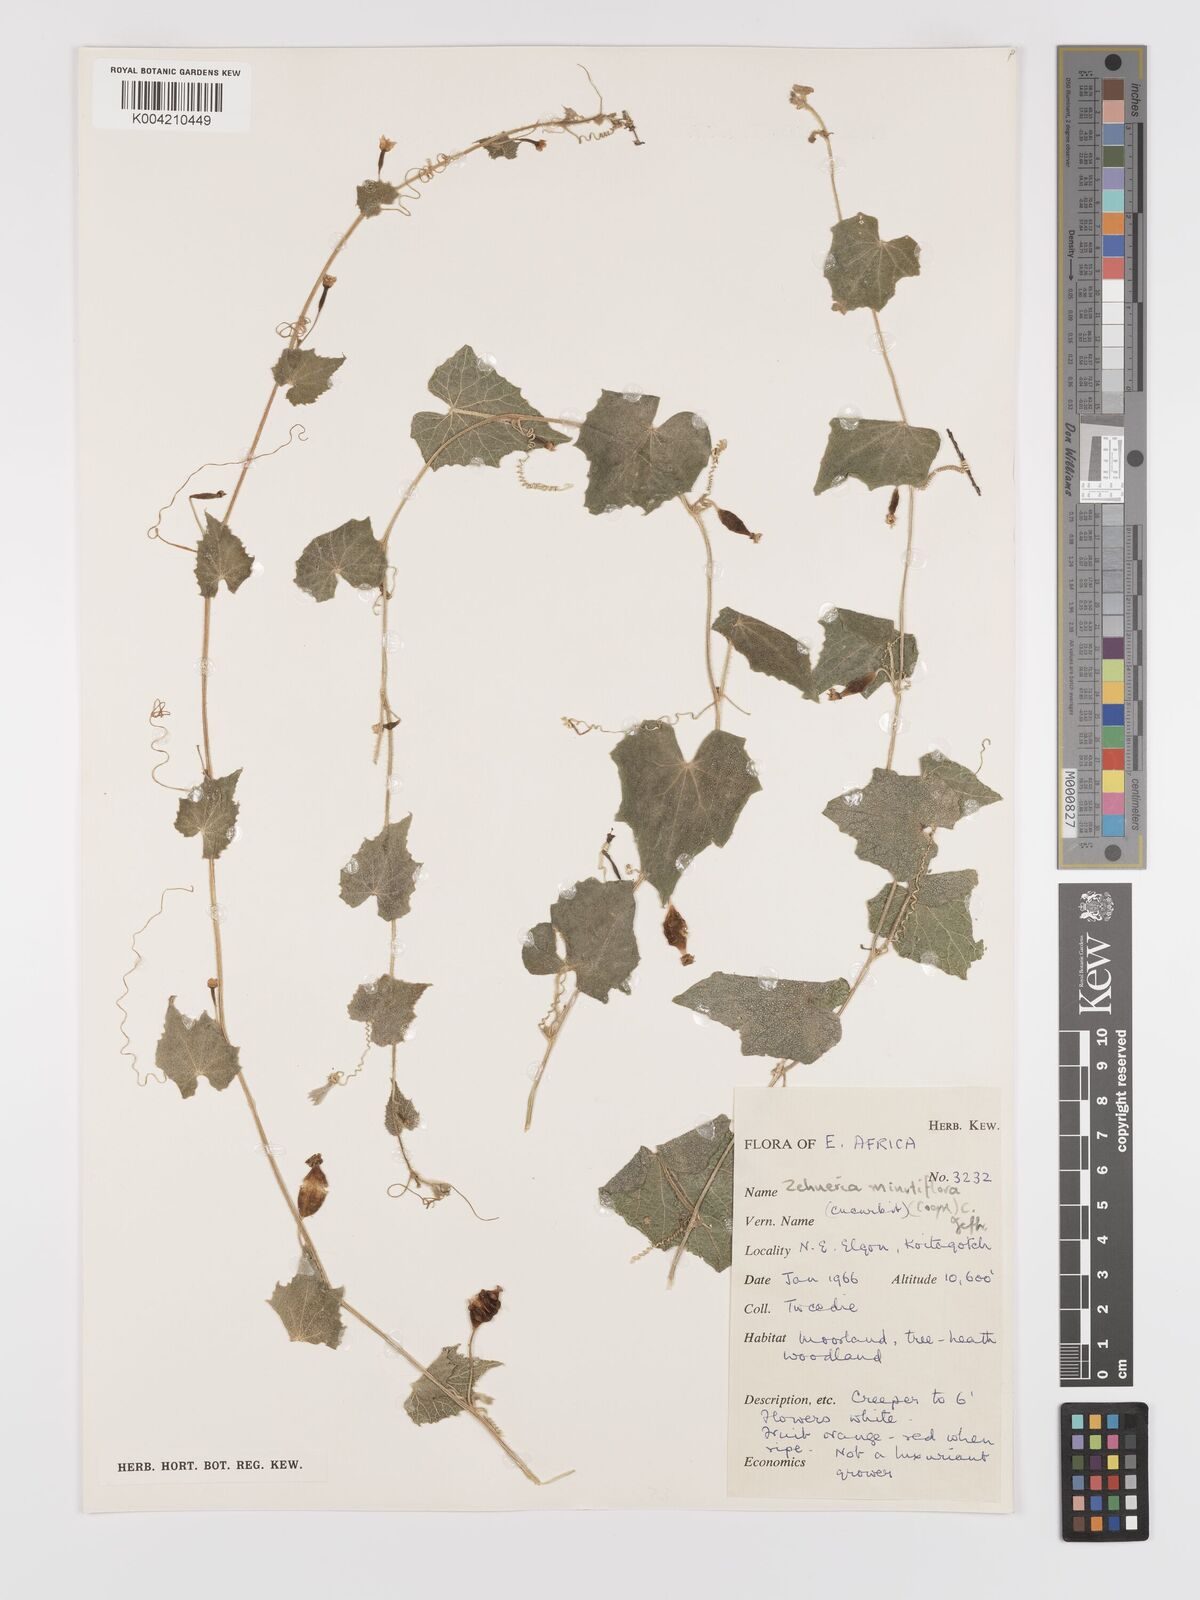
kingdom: Plantae
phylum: Tracheophyta
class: Magnoliopsida
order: Cucurbitales
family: Cucurbitaceae
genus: Zehneria
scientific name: Zehneria minutiflora
